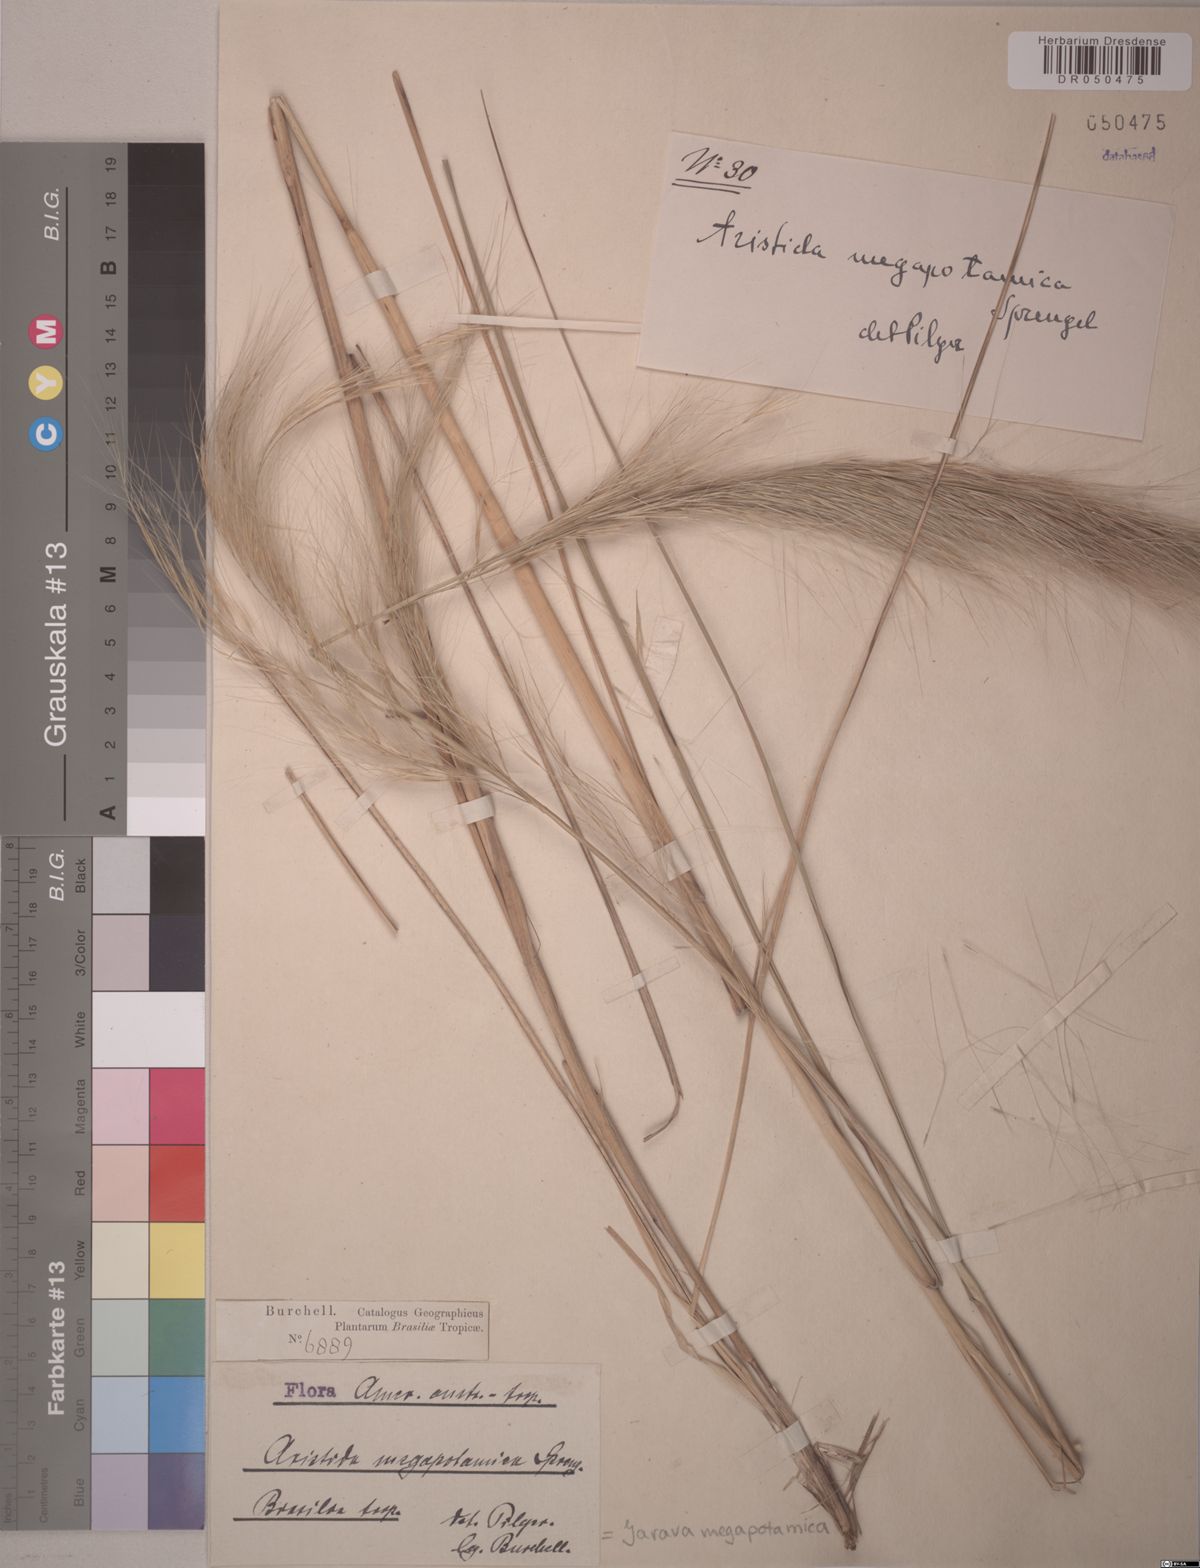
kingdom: Plantae
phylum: Tracheophyta
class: Liliopsida
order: Poales
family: Poaceae
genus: Aristida
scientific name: Aristida megapotamica
